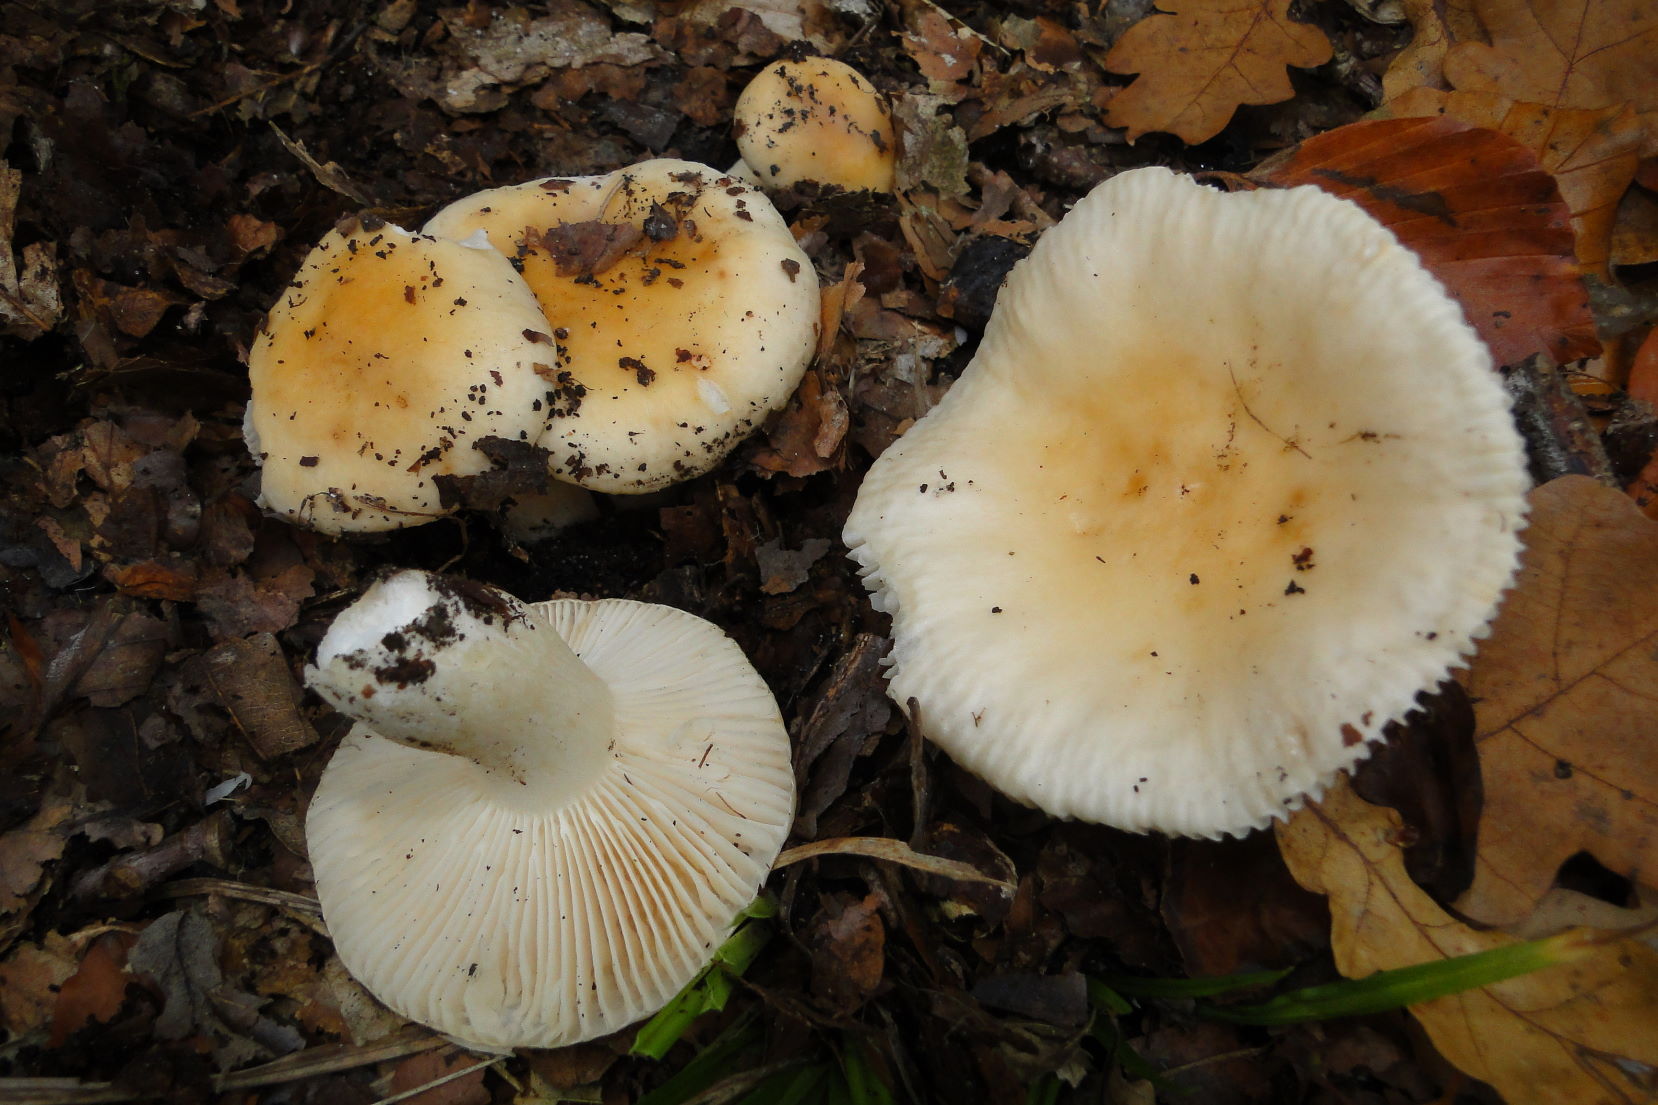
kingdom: Fungi
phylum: Basidiomycota
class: Agaricomycetes
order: Russulales
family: Russulaceae
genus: Russula
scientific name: Russula fellea
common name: galde-skørhat
